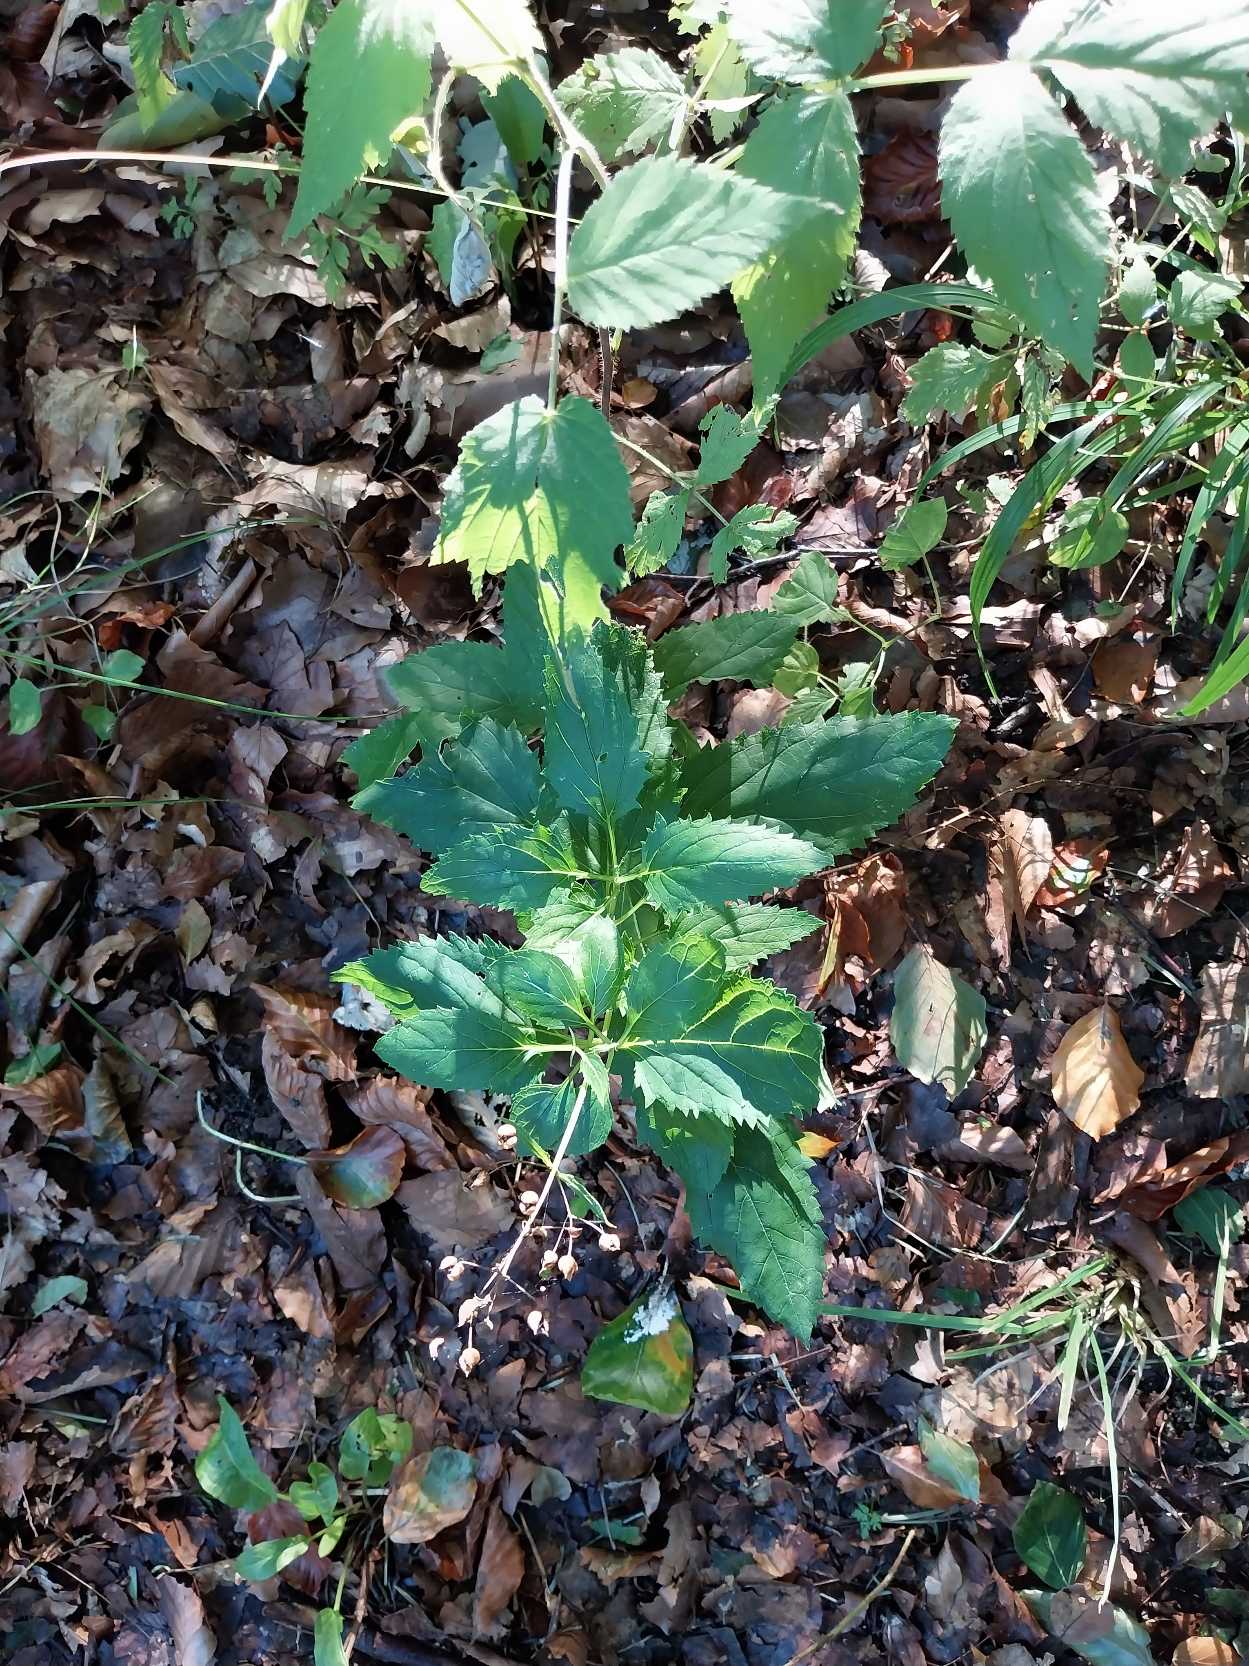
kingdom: Plantae
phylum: Tracheophyta
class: Magnoliopsida
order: Lamiales
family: Scrophulariaceae
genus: Scrophularia
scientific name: Scrophularia nodosa
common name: Knoldet brunrod
